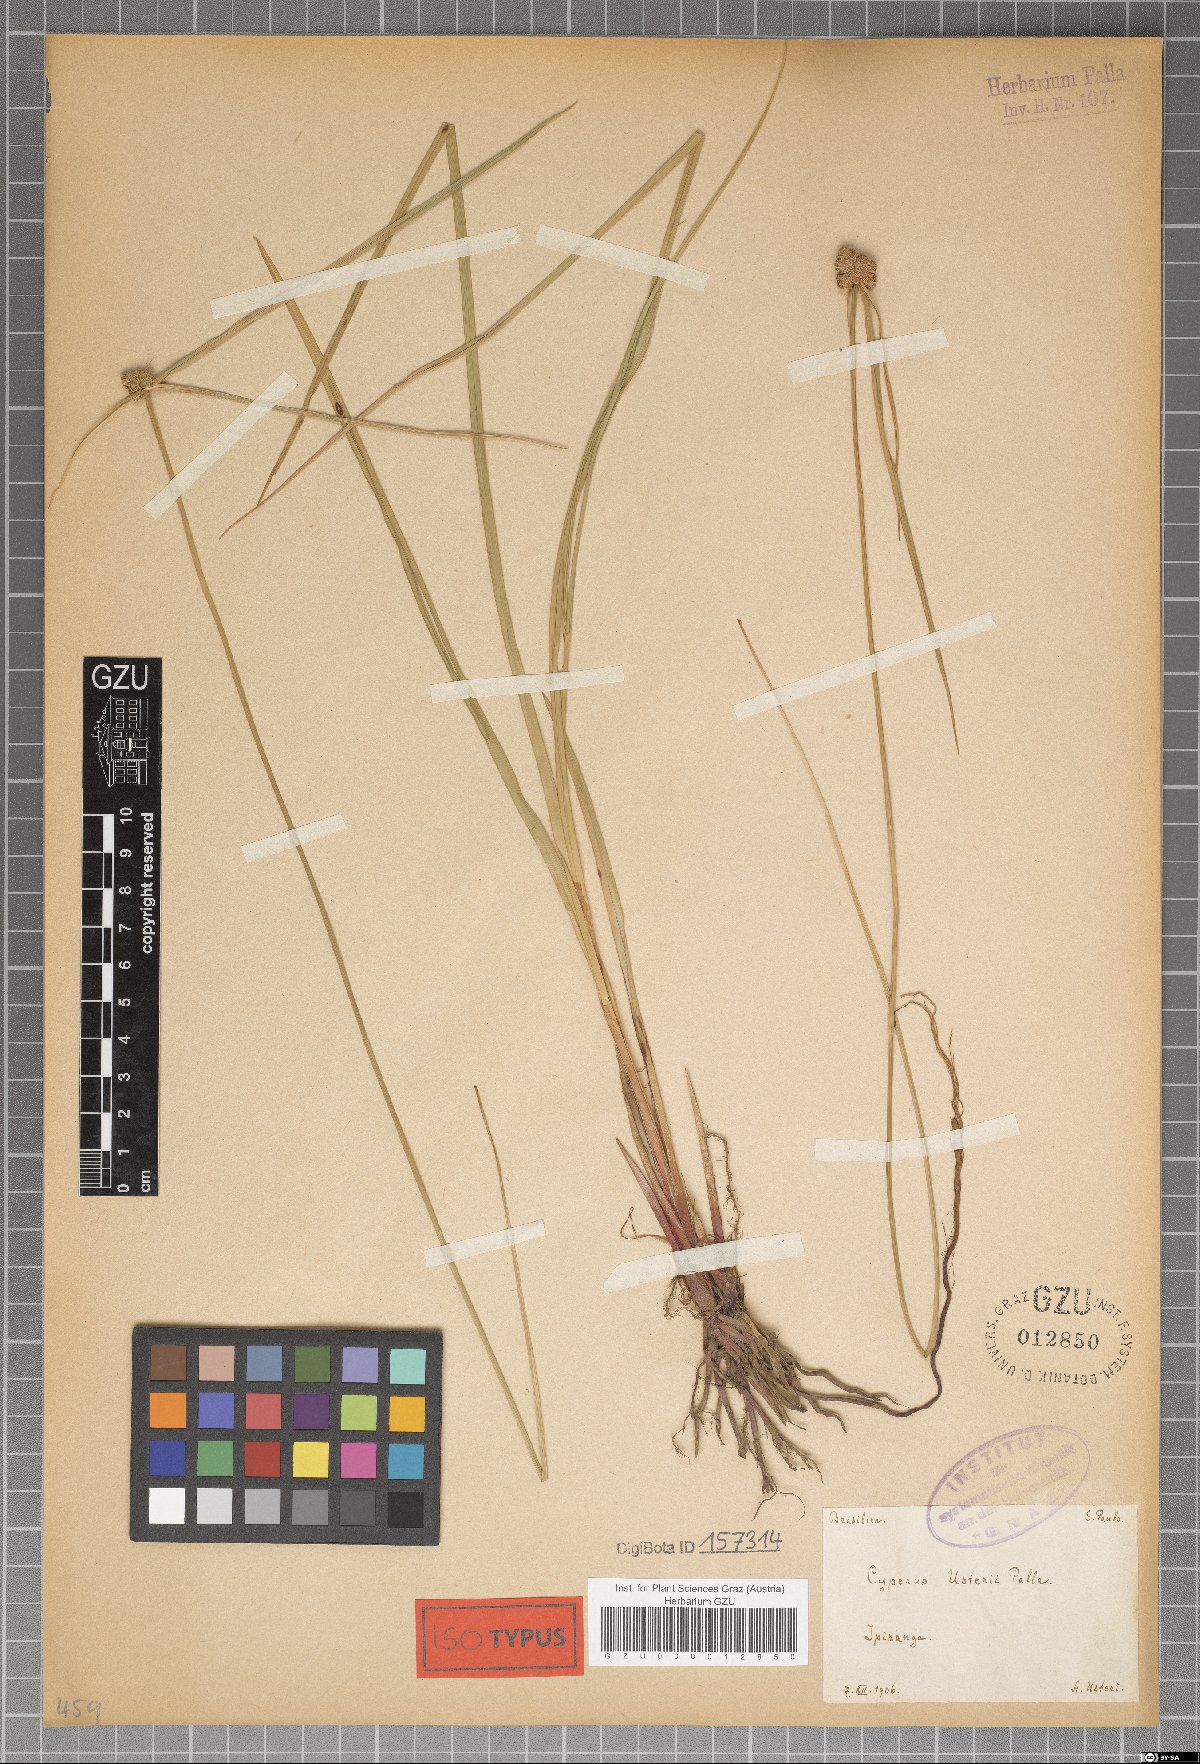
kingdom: Plantae
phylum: Tracheophyta
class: Liliopsida
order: Poales
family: Cyperaceae
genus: Cyperus
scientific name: Cyperus intricatus
